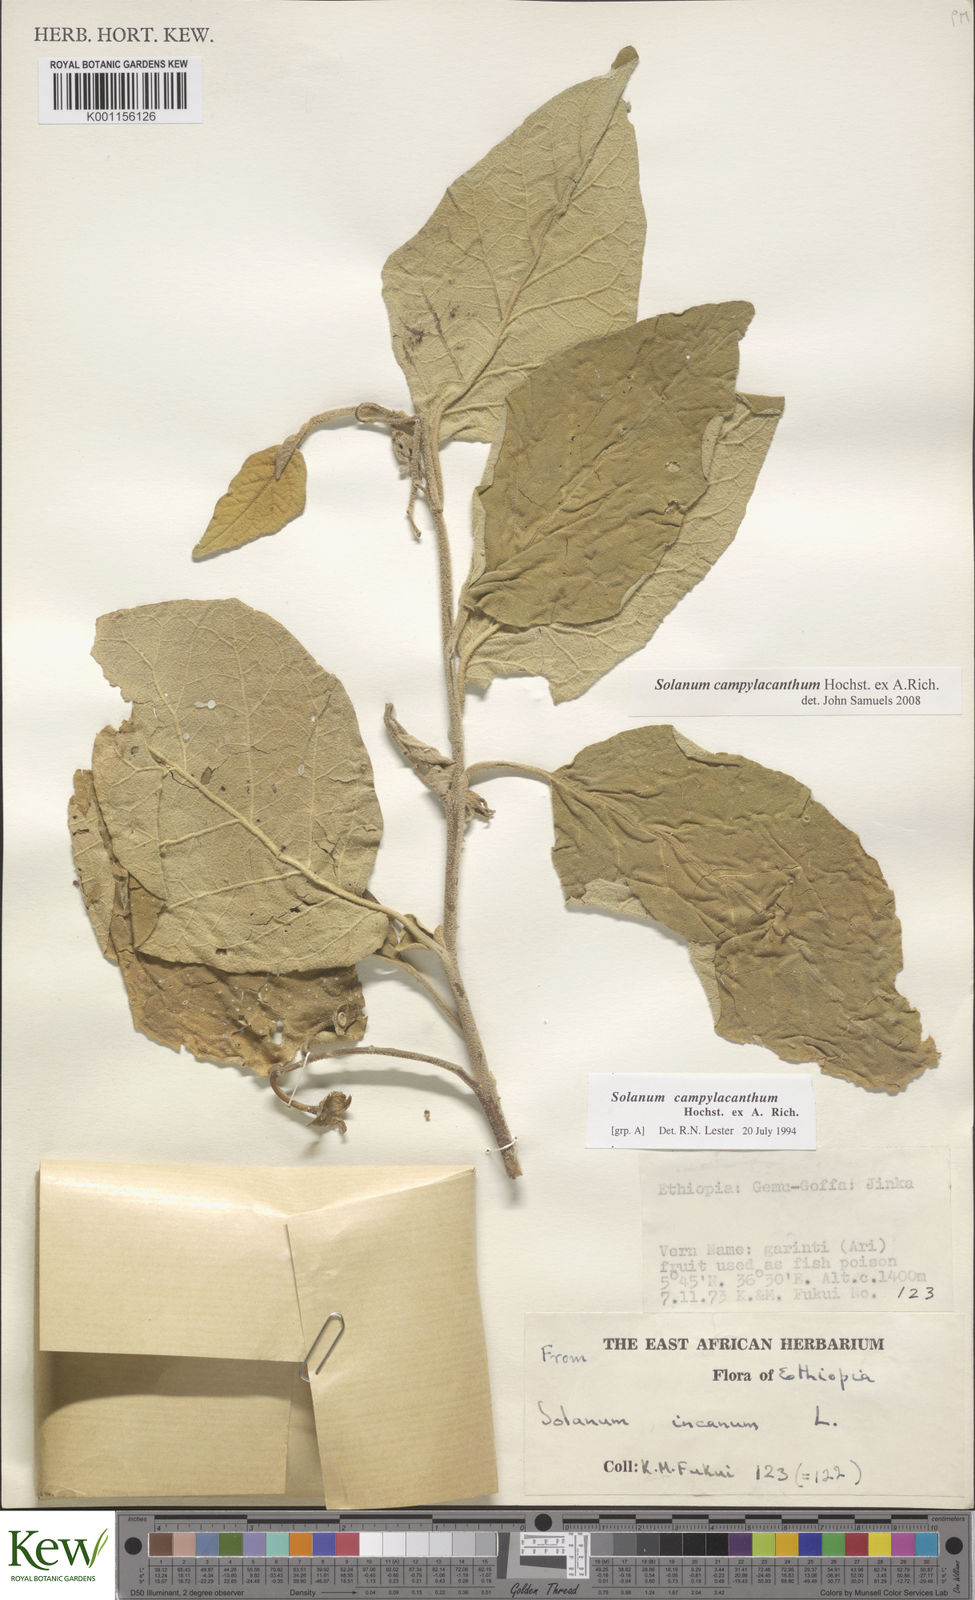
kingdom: Plantae
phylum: Tracheophyta
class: Magnoliopsida
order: Solanales
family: Solanaceae
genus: Solanum
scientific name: Solanum campylacanthum
